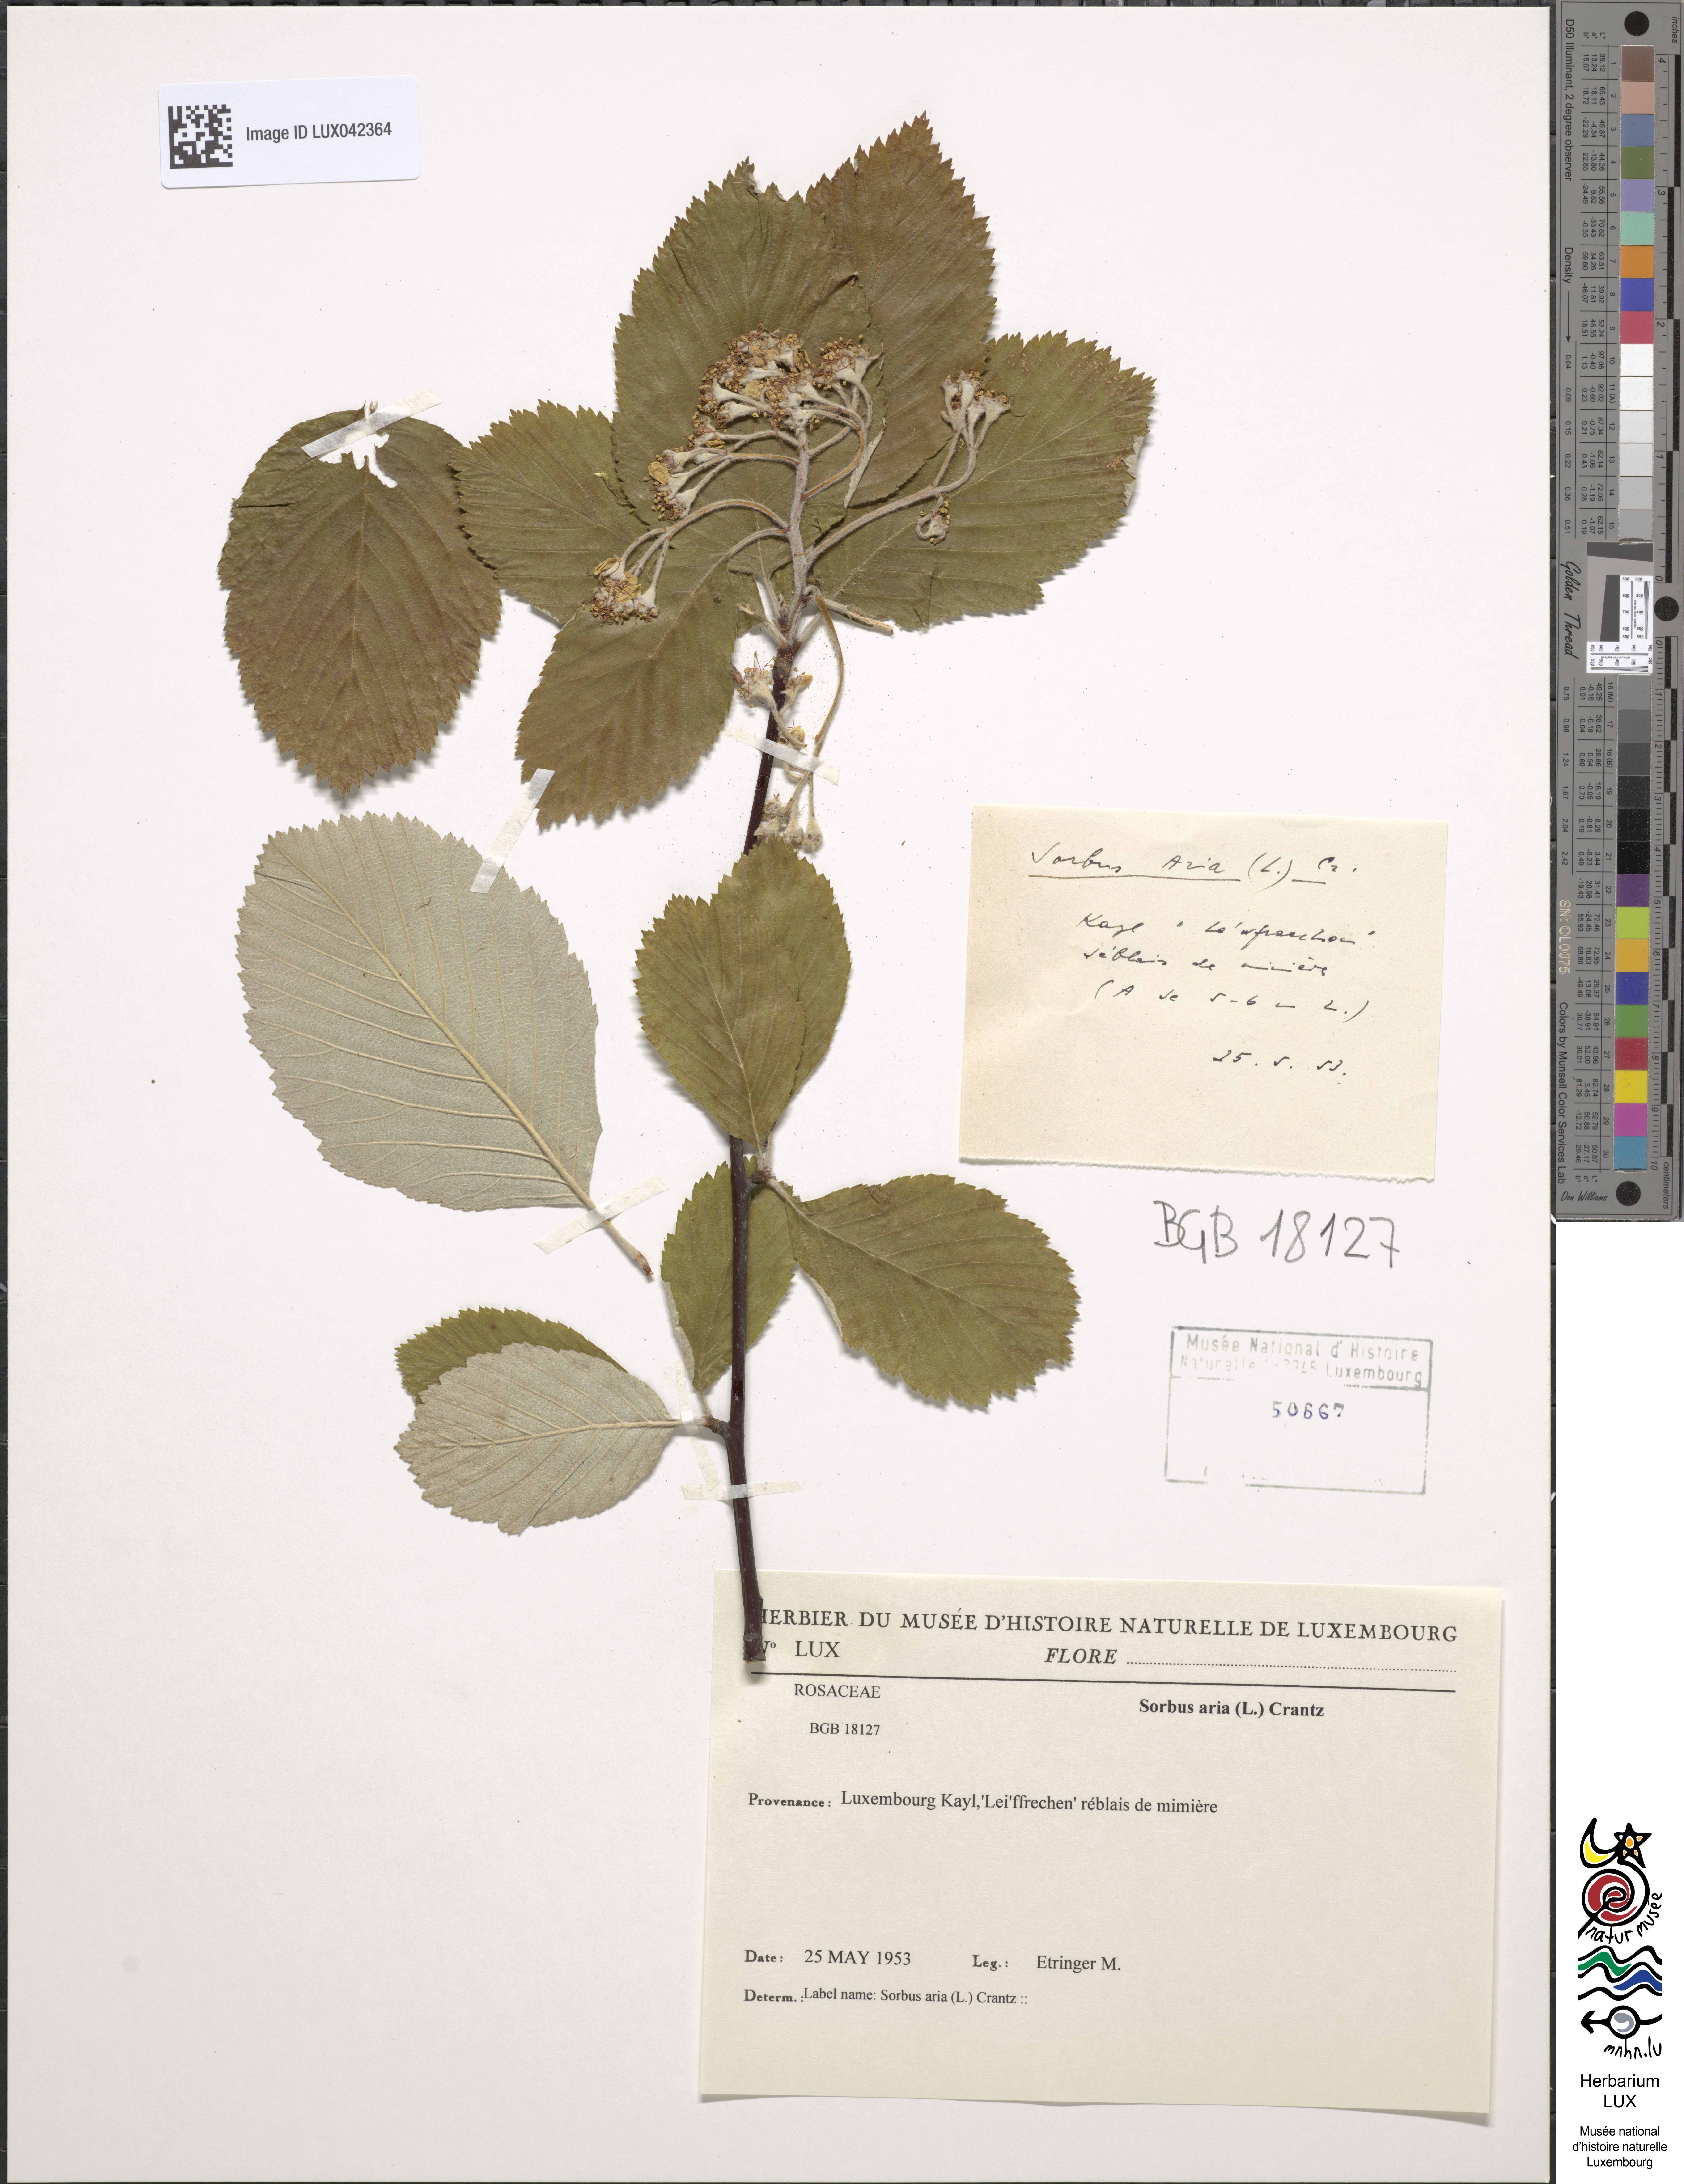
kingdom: Plantae
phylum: Tracheophyta
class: Magnoliopsida
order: Rosales
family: Rosaceae
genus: Aria
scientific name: Aria edulis
